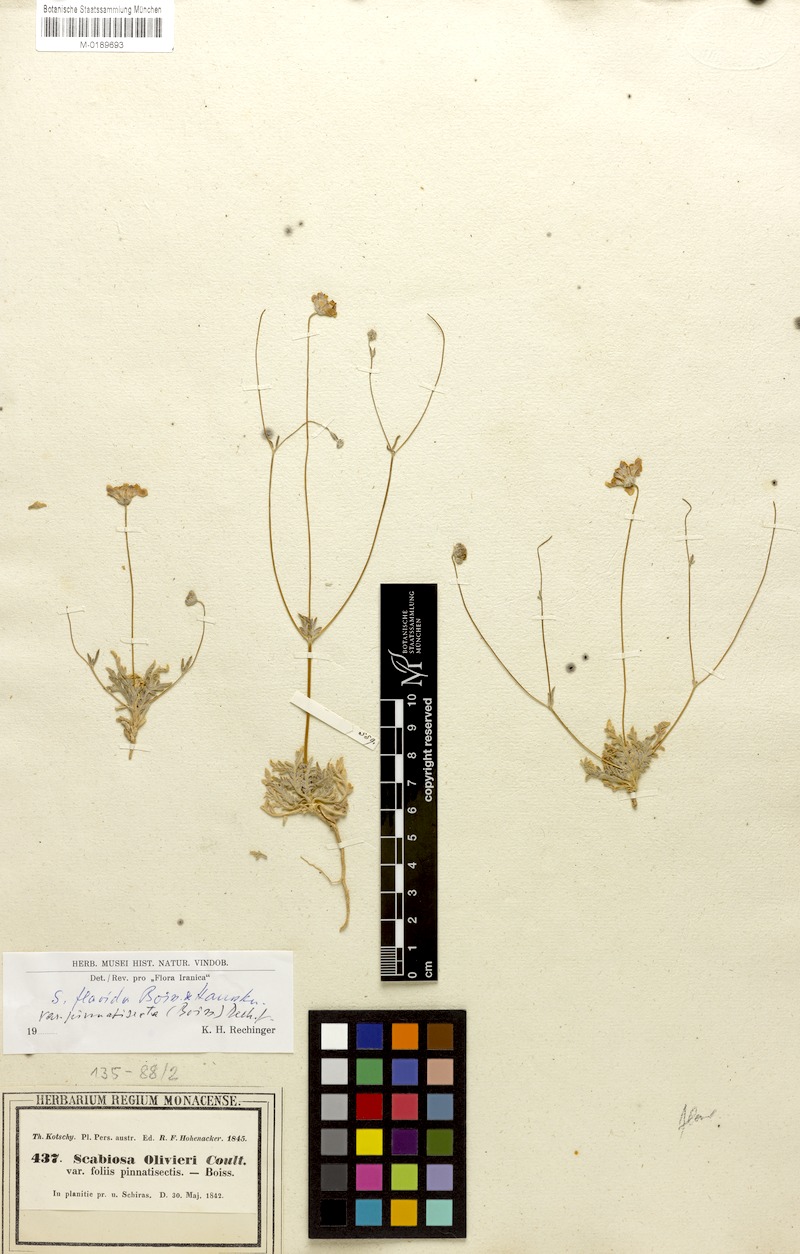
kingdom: Plantae
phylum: Tracheophyta
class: Magnoliopsida
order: Dipsacales
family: Caprifoliaceae
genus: Lomelosia
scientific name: Lomelosia flavida
